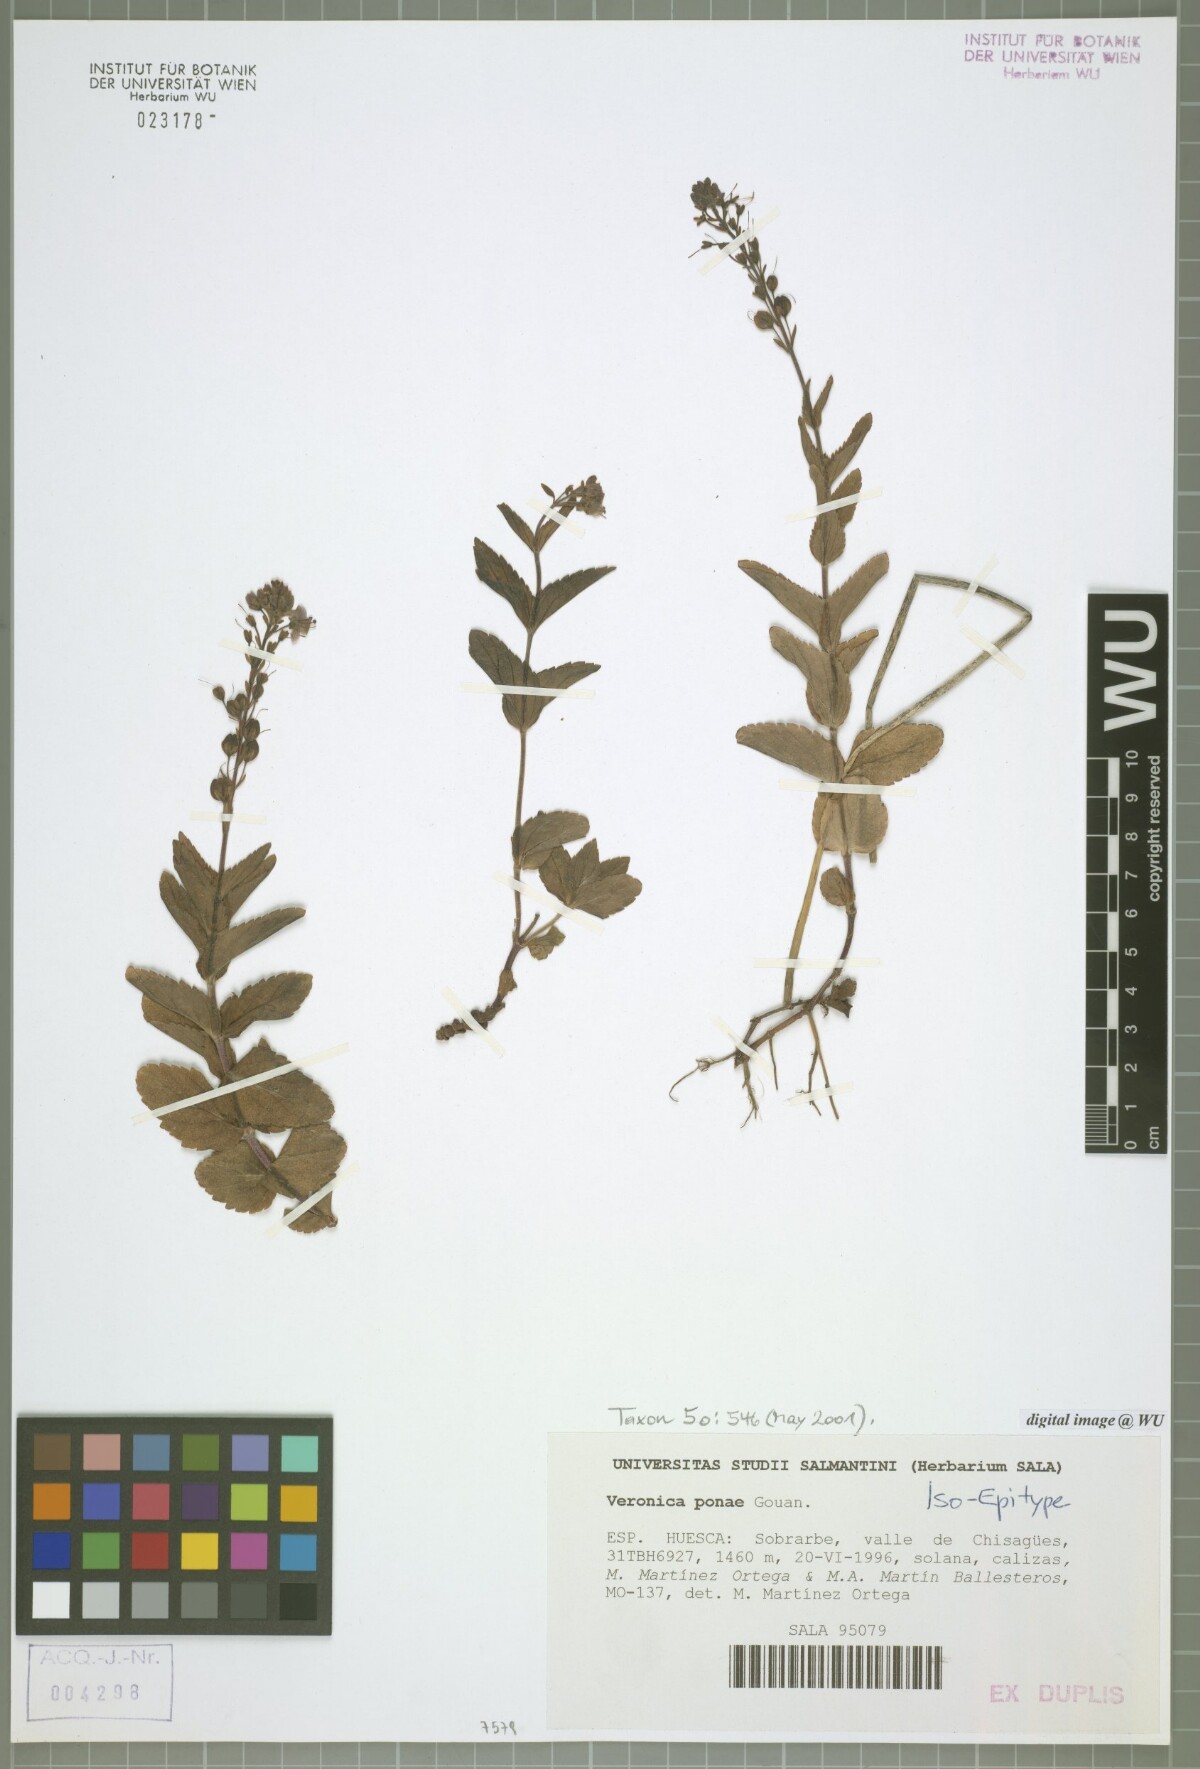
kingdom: Plantae
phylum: Tracheophyta
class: Magnoliopsida
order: Lamiales
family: Plantaginaceae
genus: Veronica
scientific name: Veronica ponae
